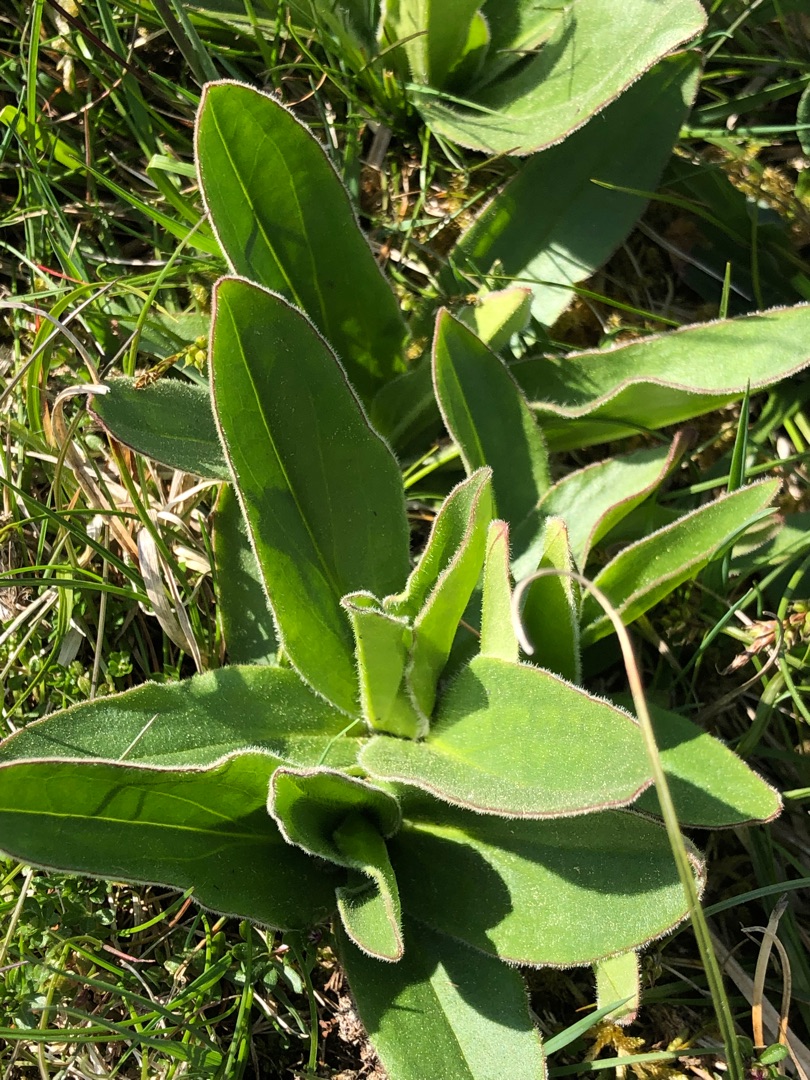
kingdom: Plantae
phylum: Tracheophyta
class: Magnoliopsida
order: Asterales
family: Asteraceae
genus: Arnica
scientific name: Arnica montana
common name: Guldblomme
